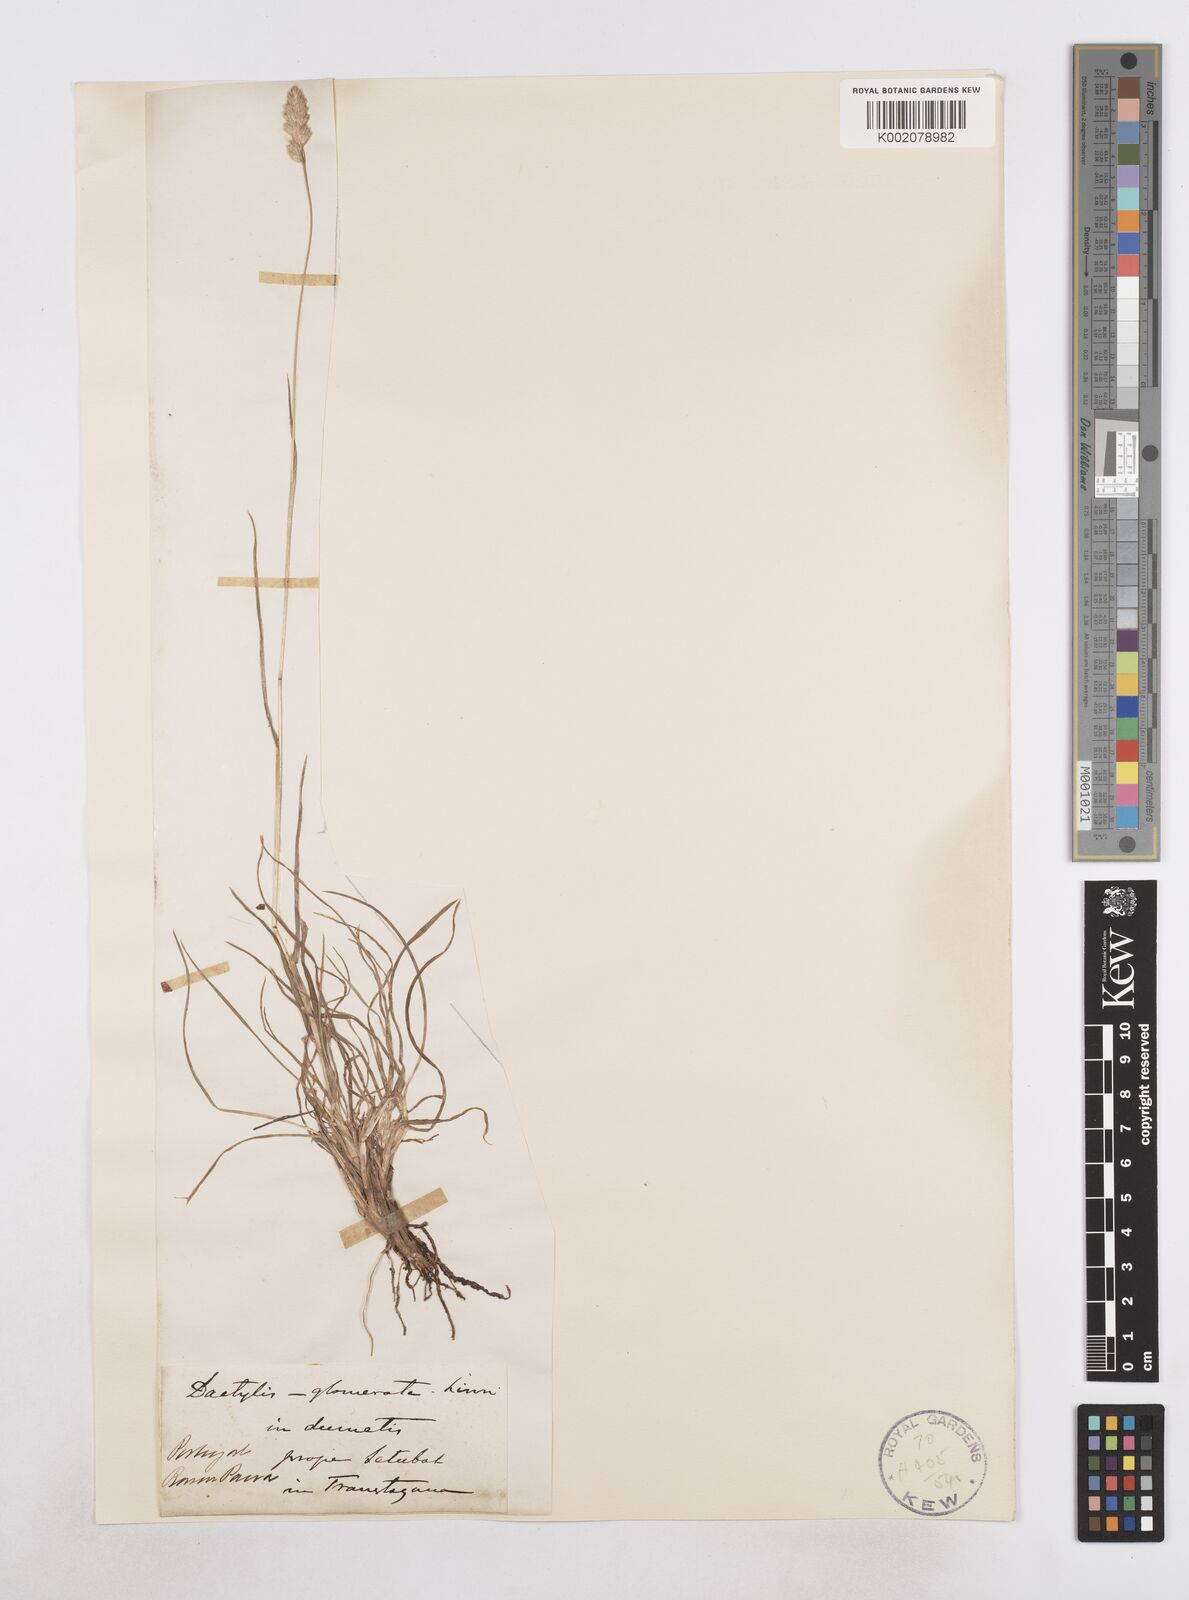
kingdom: Plantae
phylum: Tracheophyta
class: Liliopsida
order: Poales
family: Poaceae
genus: Dactylis
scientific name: Dactylis glomerata
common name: Orchardgrass
